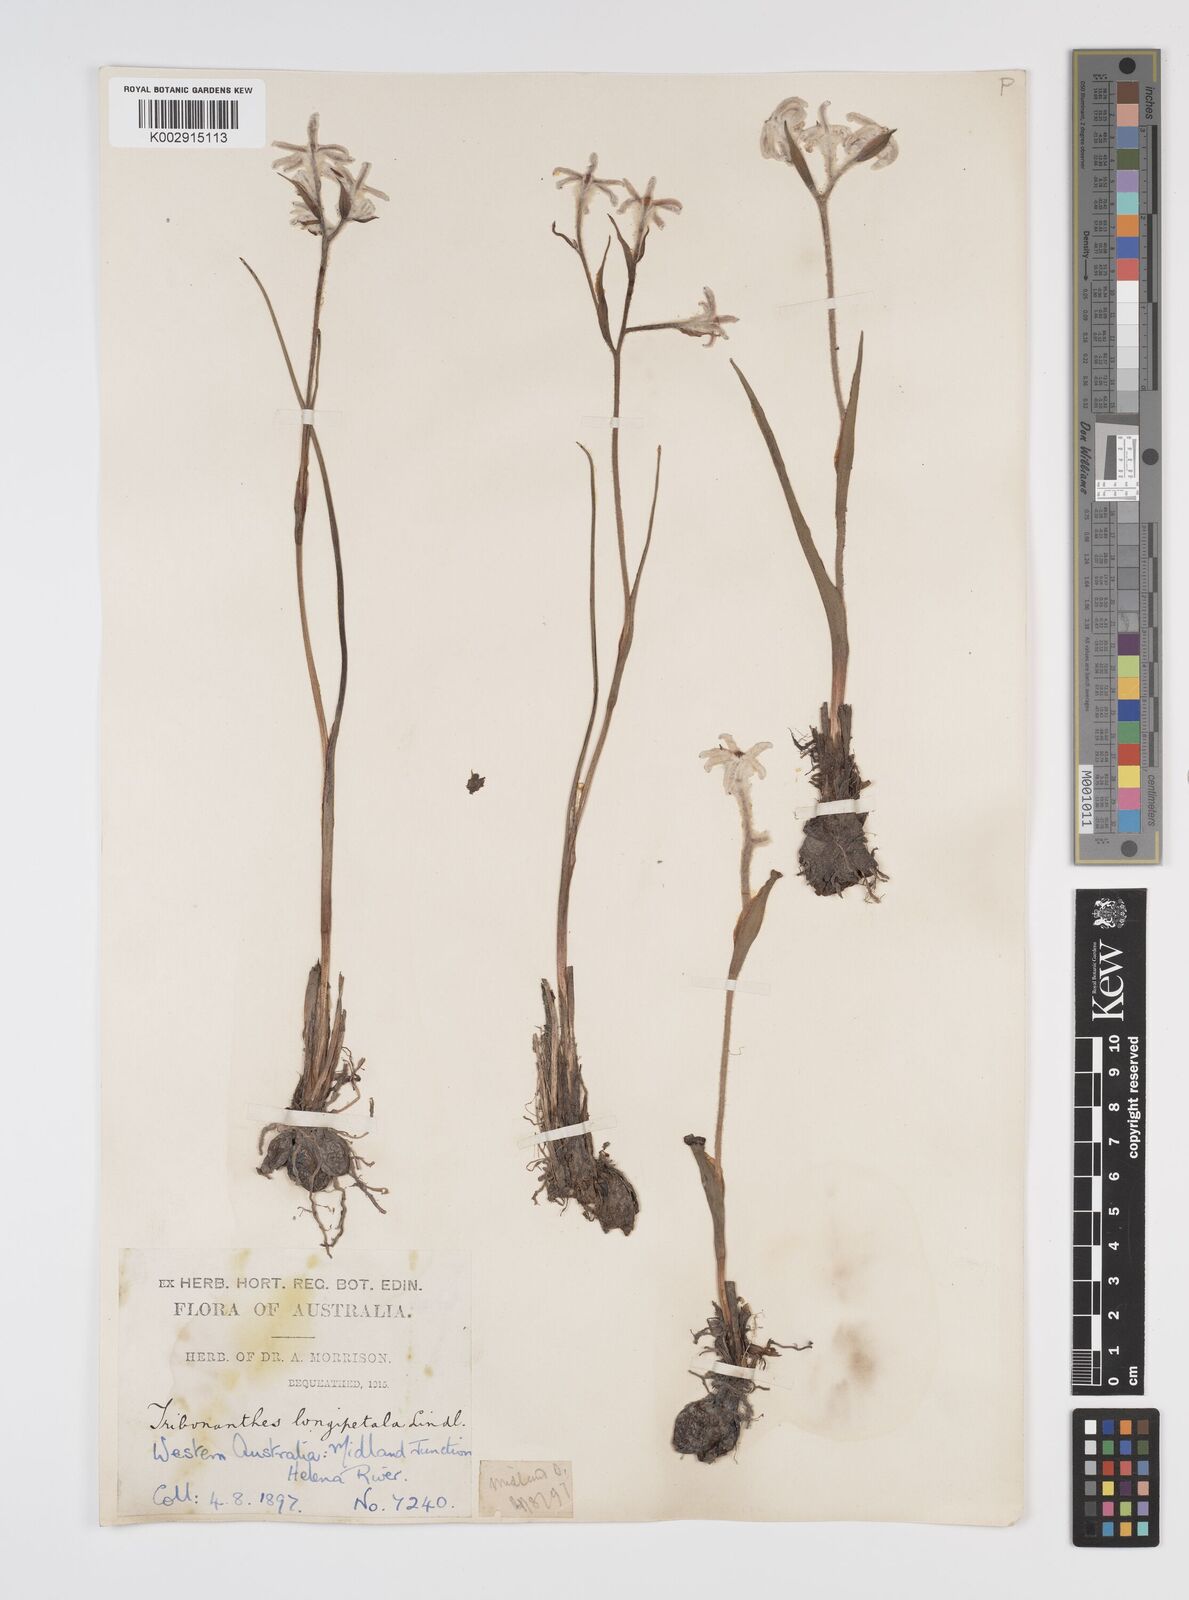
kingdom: Plantae
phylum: Tracheophyta
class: Liliopsida
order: Commelinales
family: Haemodoraceae
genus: Tribonanthes
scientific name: Tribonanthes longipetala
